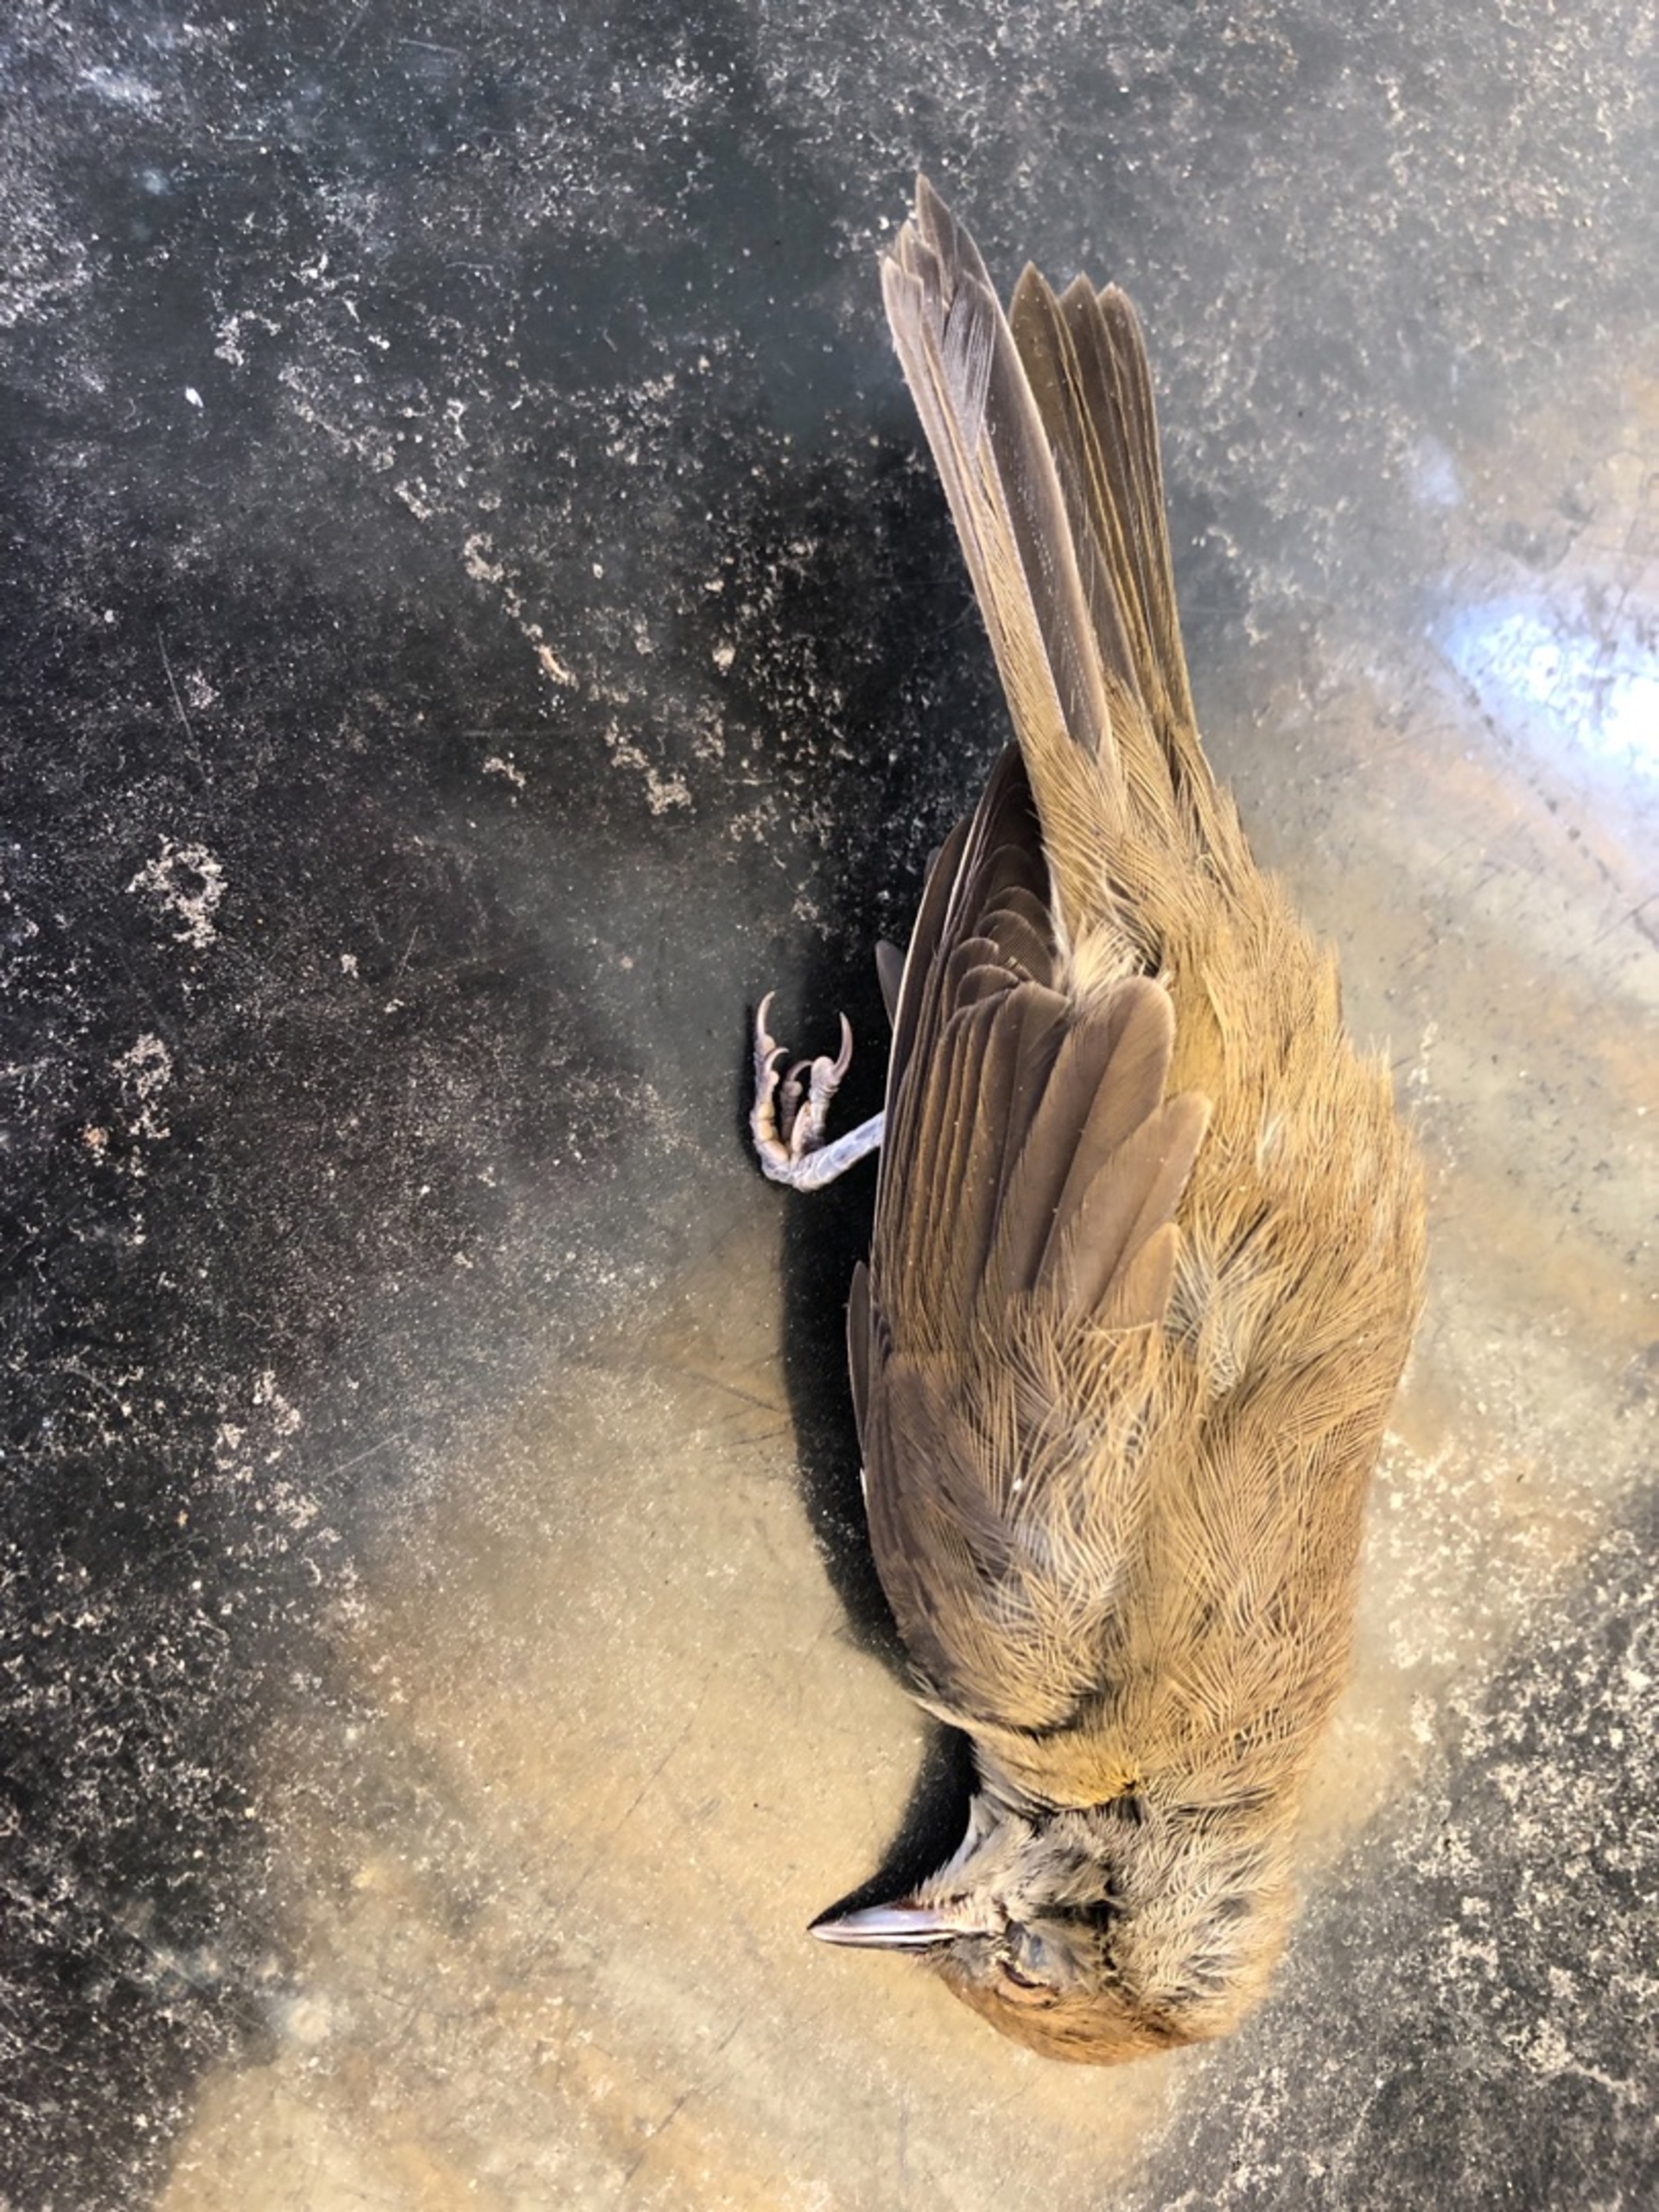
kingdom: Animalia
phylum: Chordata
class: Aves
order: Passeriformes
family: Sylviidae
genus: Sylvia
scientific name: Sylvia atricapilla
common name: Munk
